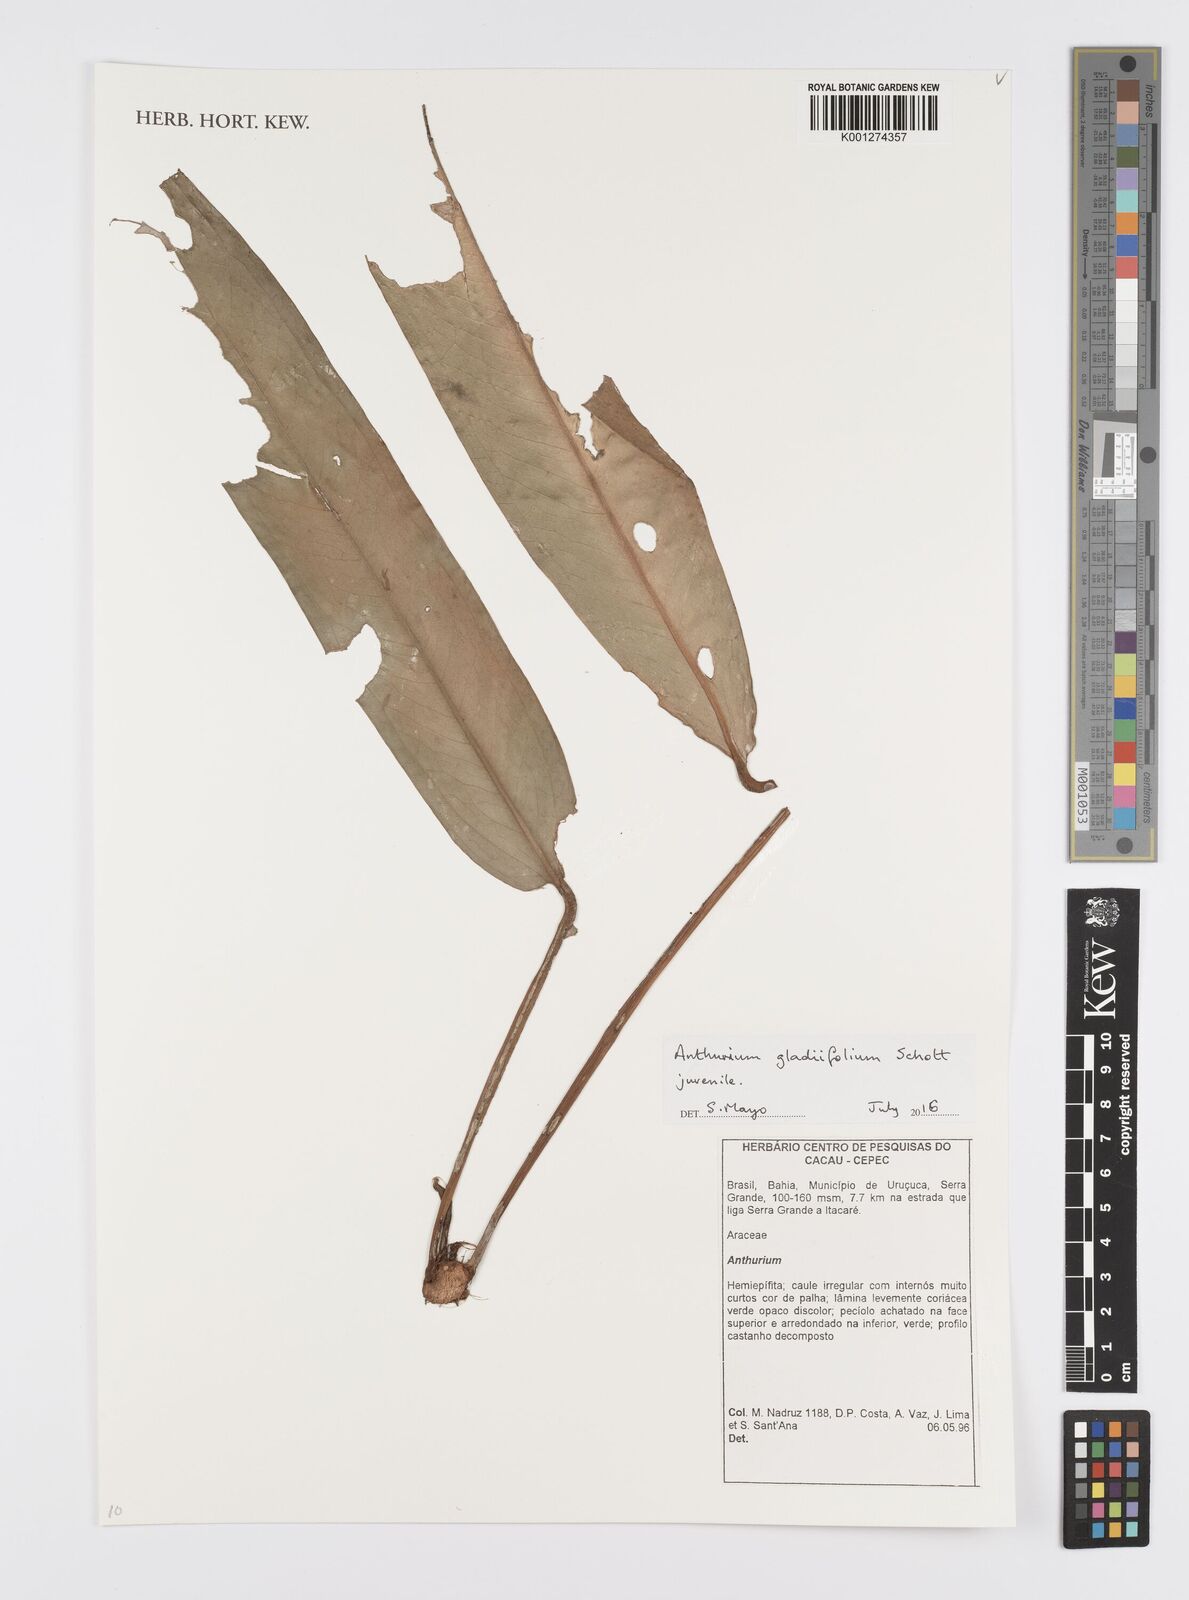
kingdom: Plantae
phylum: Tracheophyta
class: Liliopsida
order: Alismatales
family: Araceae
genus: Anthurium
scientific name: Anthurium gladiifolium
